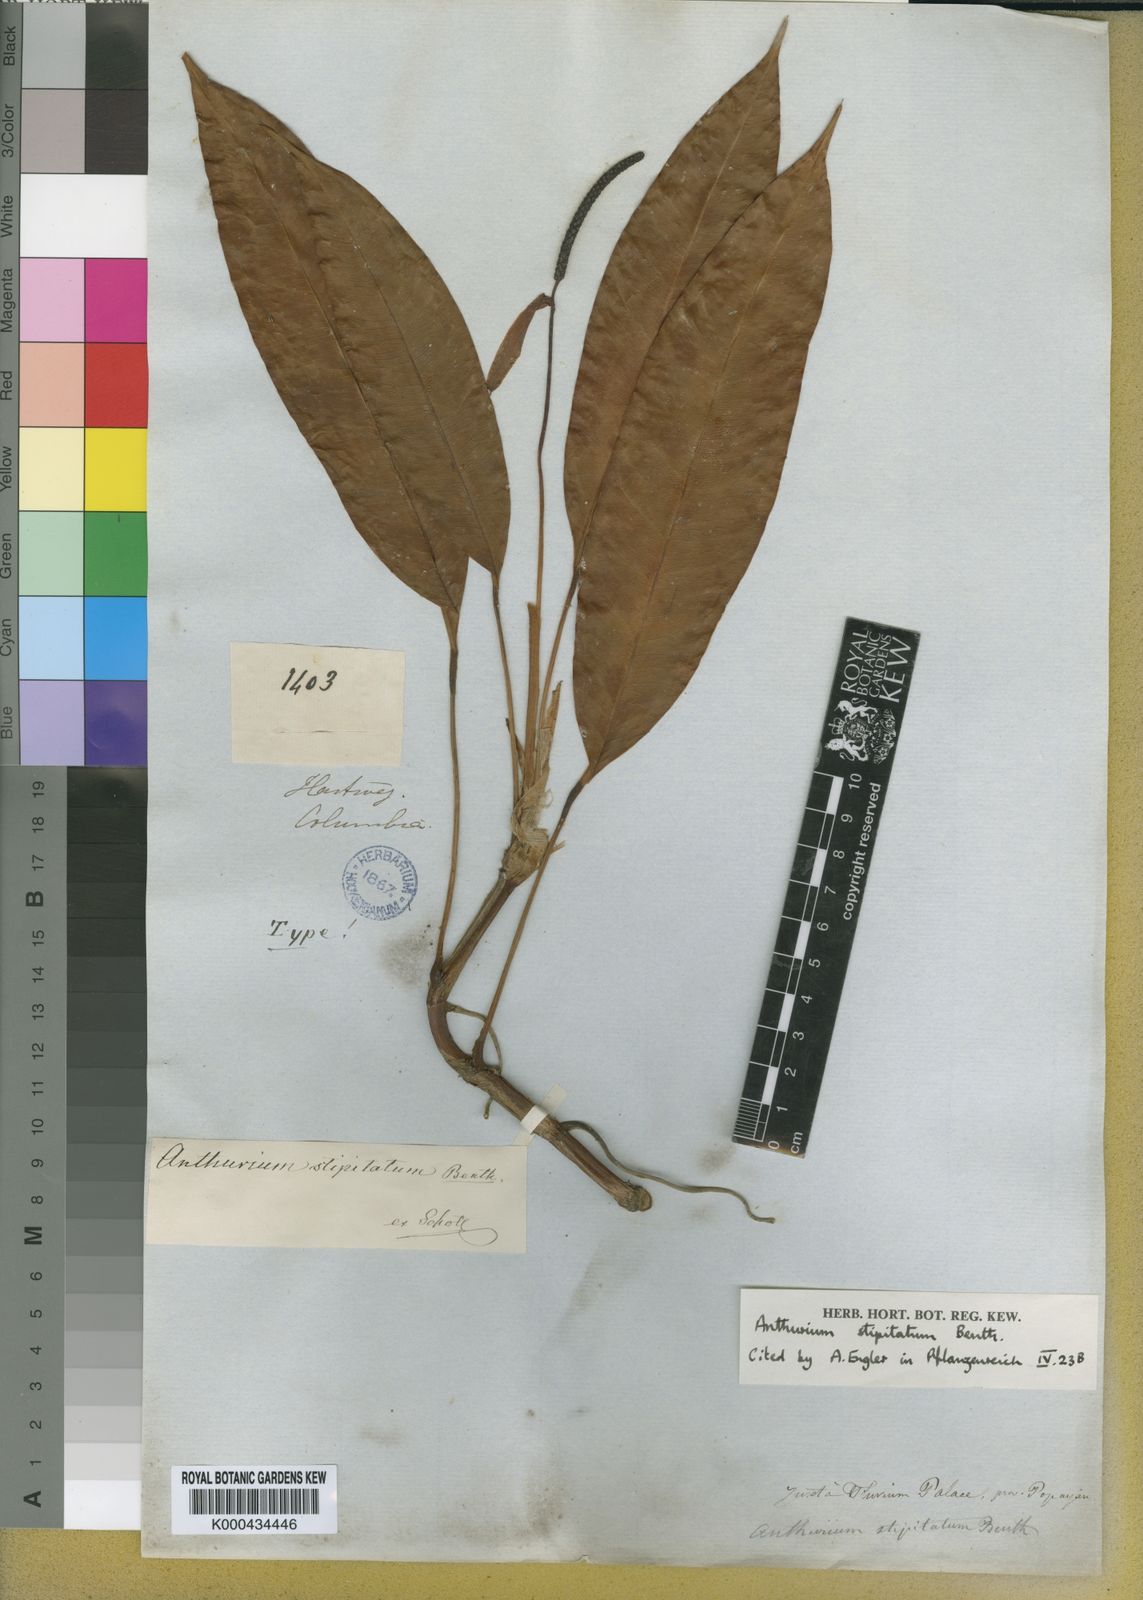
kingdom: Plantae
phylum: Tracheophyta
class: Liliopsida
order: Alismatales
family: Araceae
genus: Anthurium
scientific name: Anthurium stipitatum
